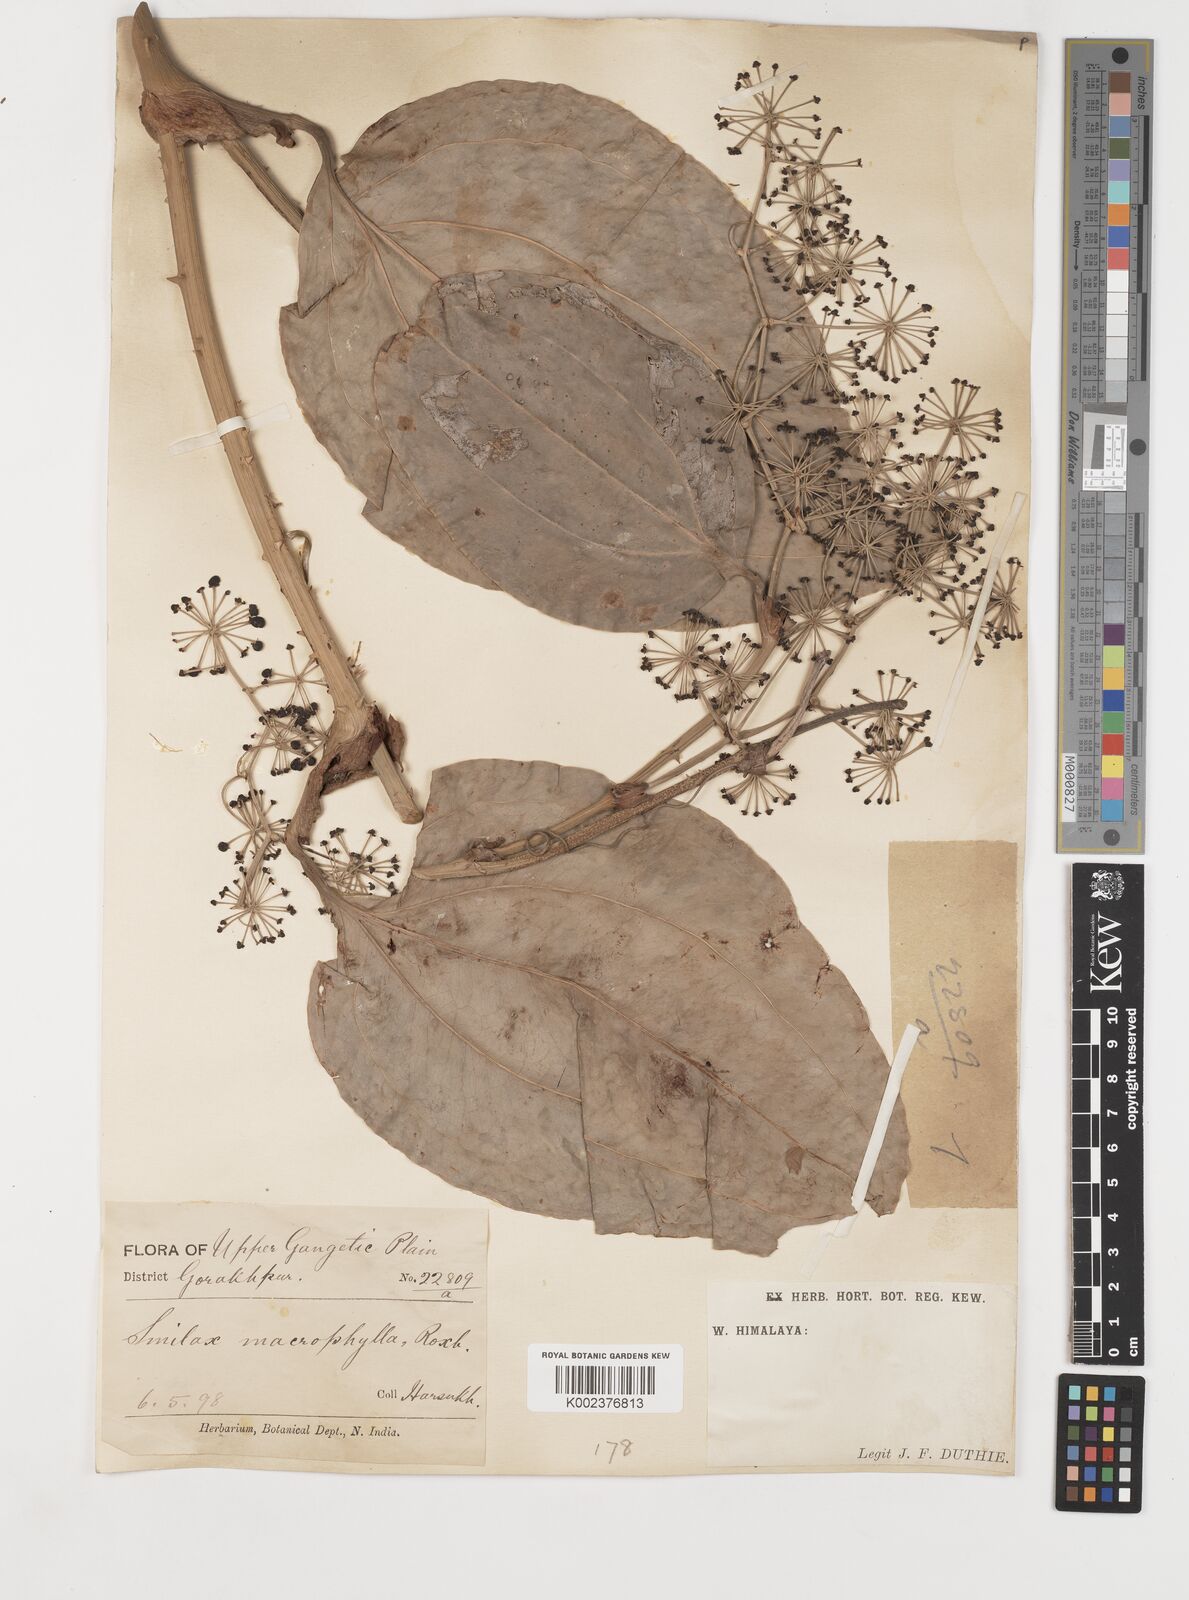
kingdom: Plantae
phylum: Tracheophyta
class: Liliopsida
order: Liliales
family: Smilacaceae
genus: Smilax
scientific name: Smilax prolifera
